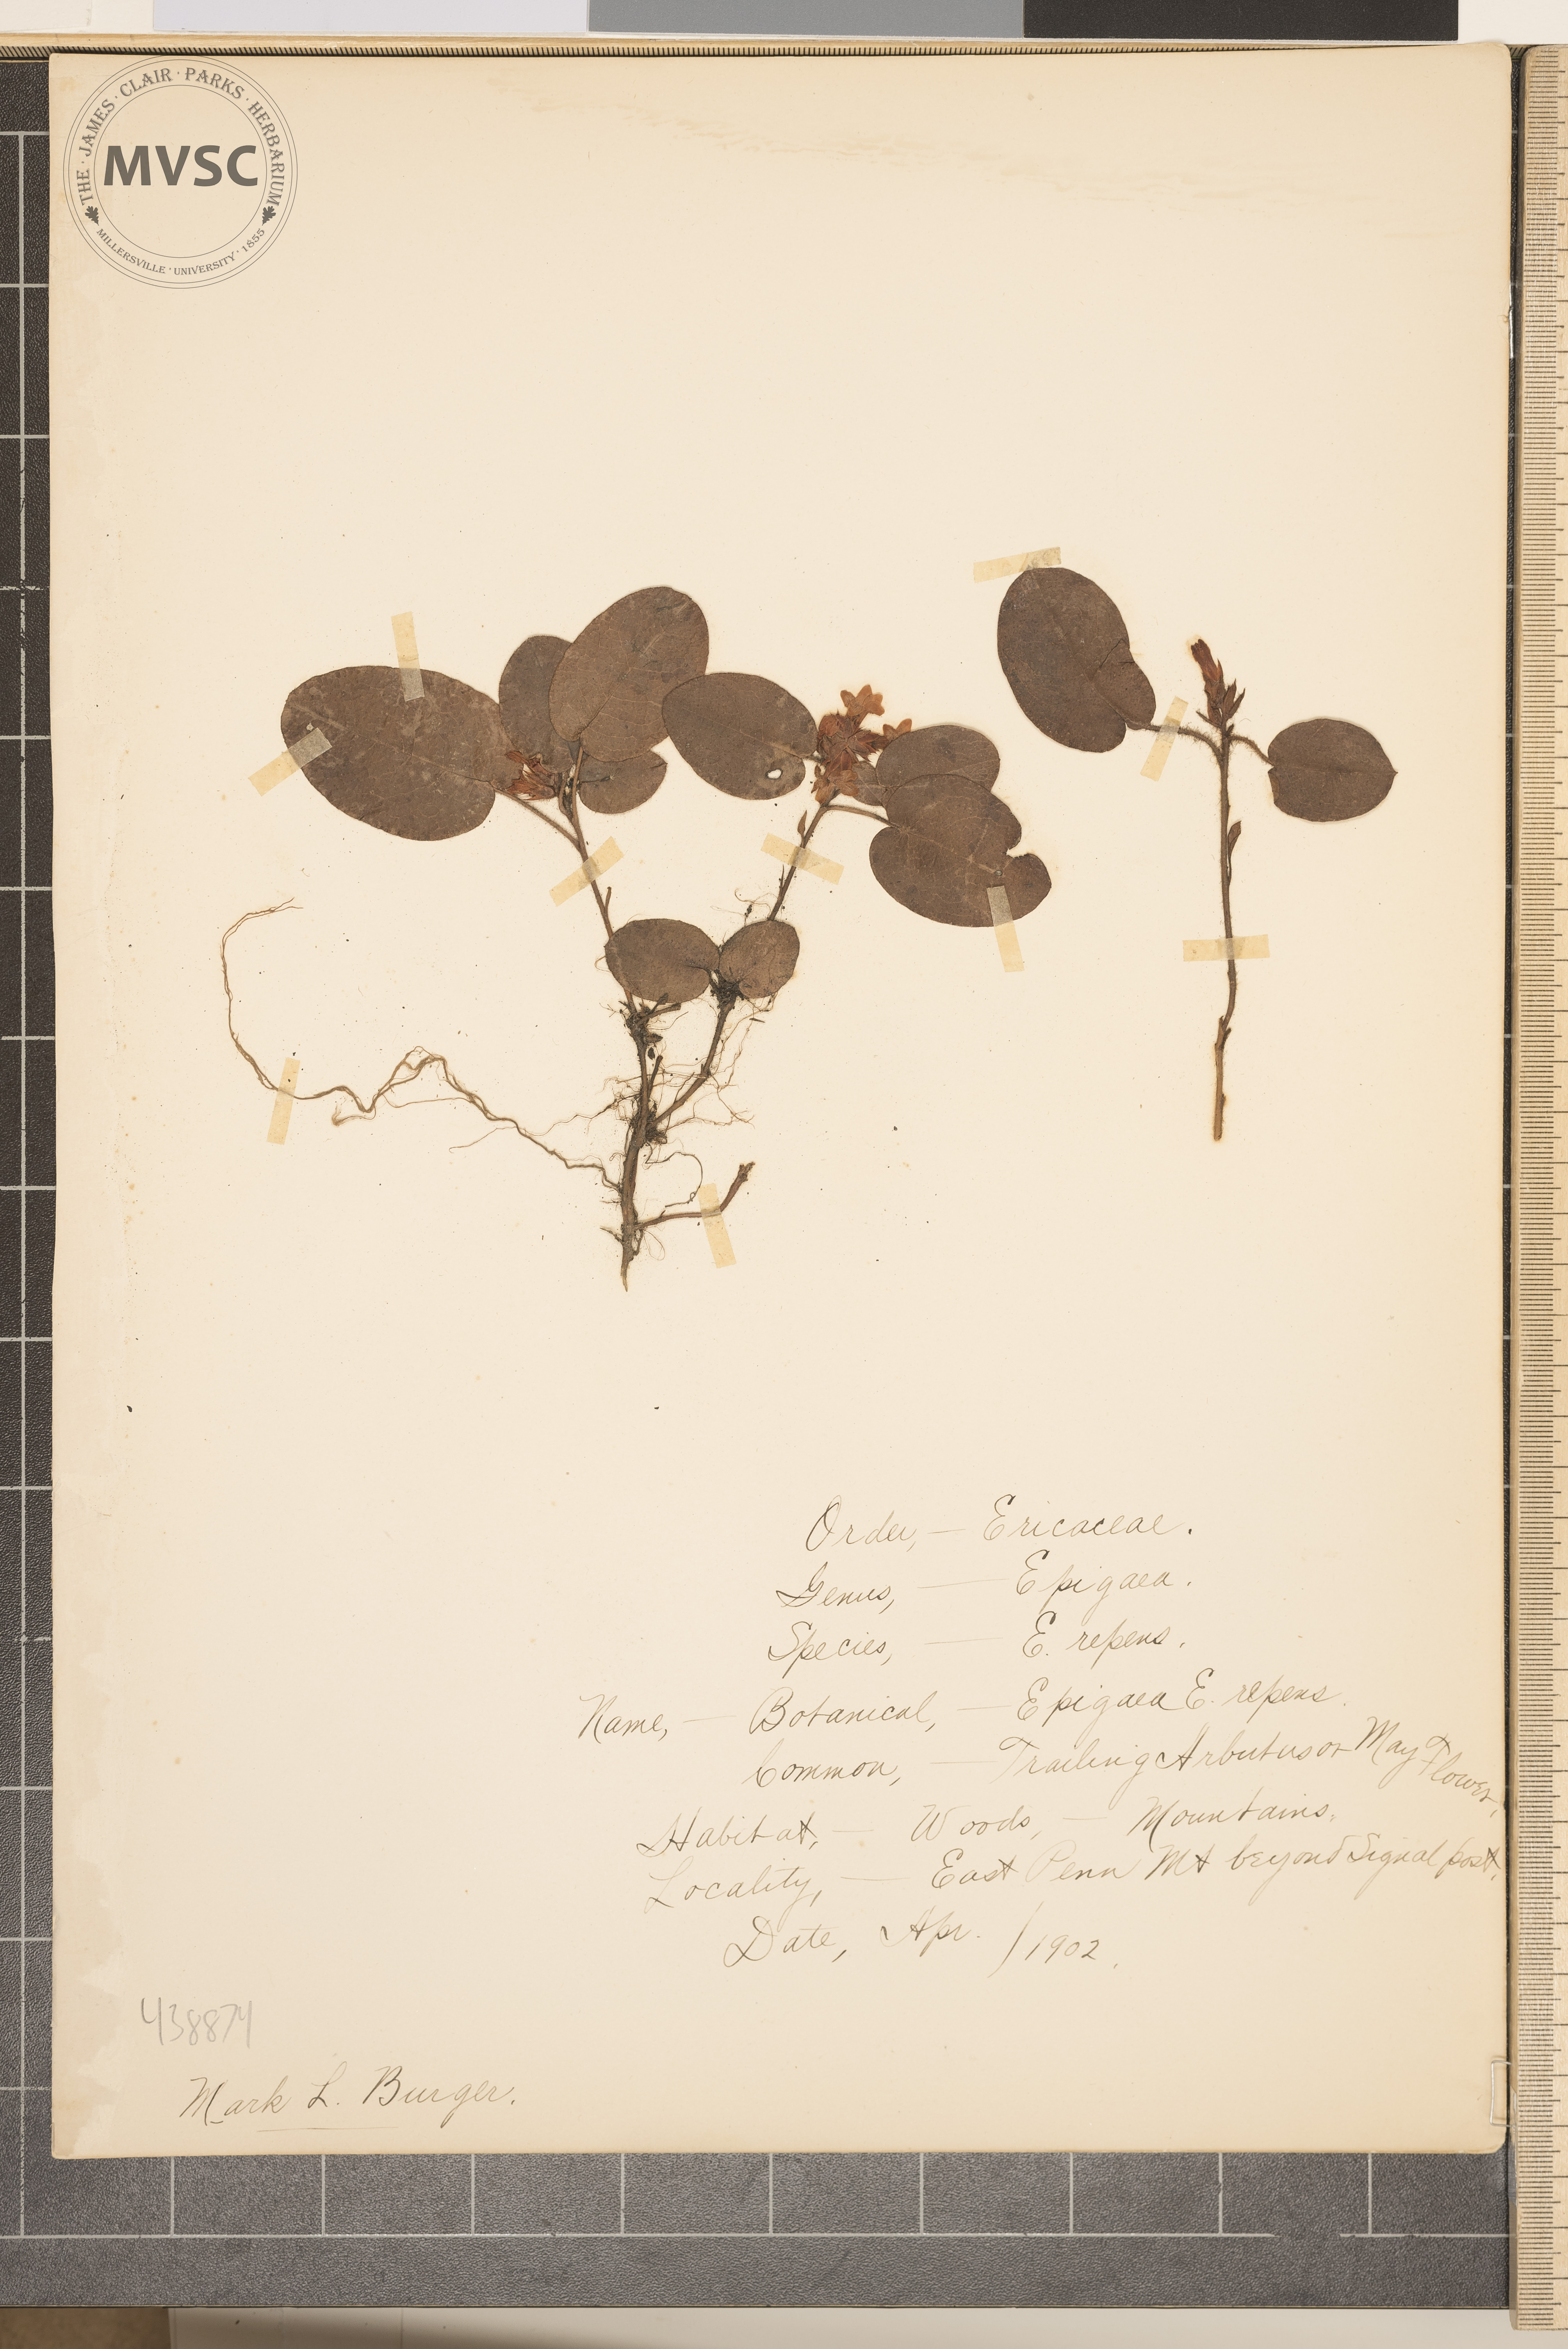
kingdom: Plantae
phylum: Tracheophyta
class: Magnoliopsida
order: Ericales
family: Ericaceae
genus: Epigaea
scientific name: Epigaea repens
